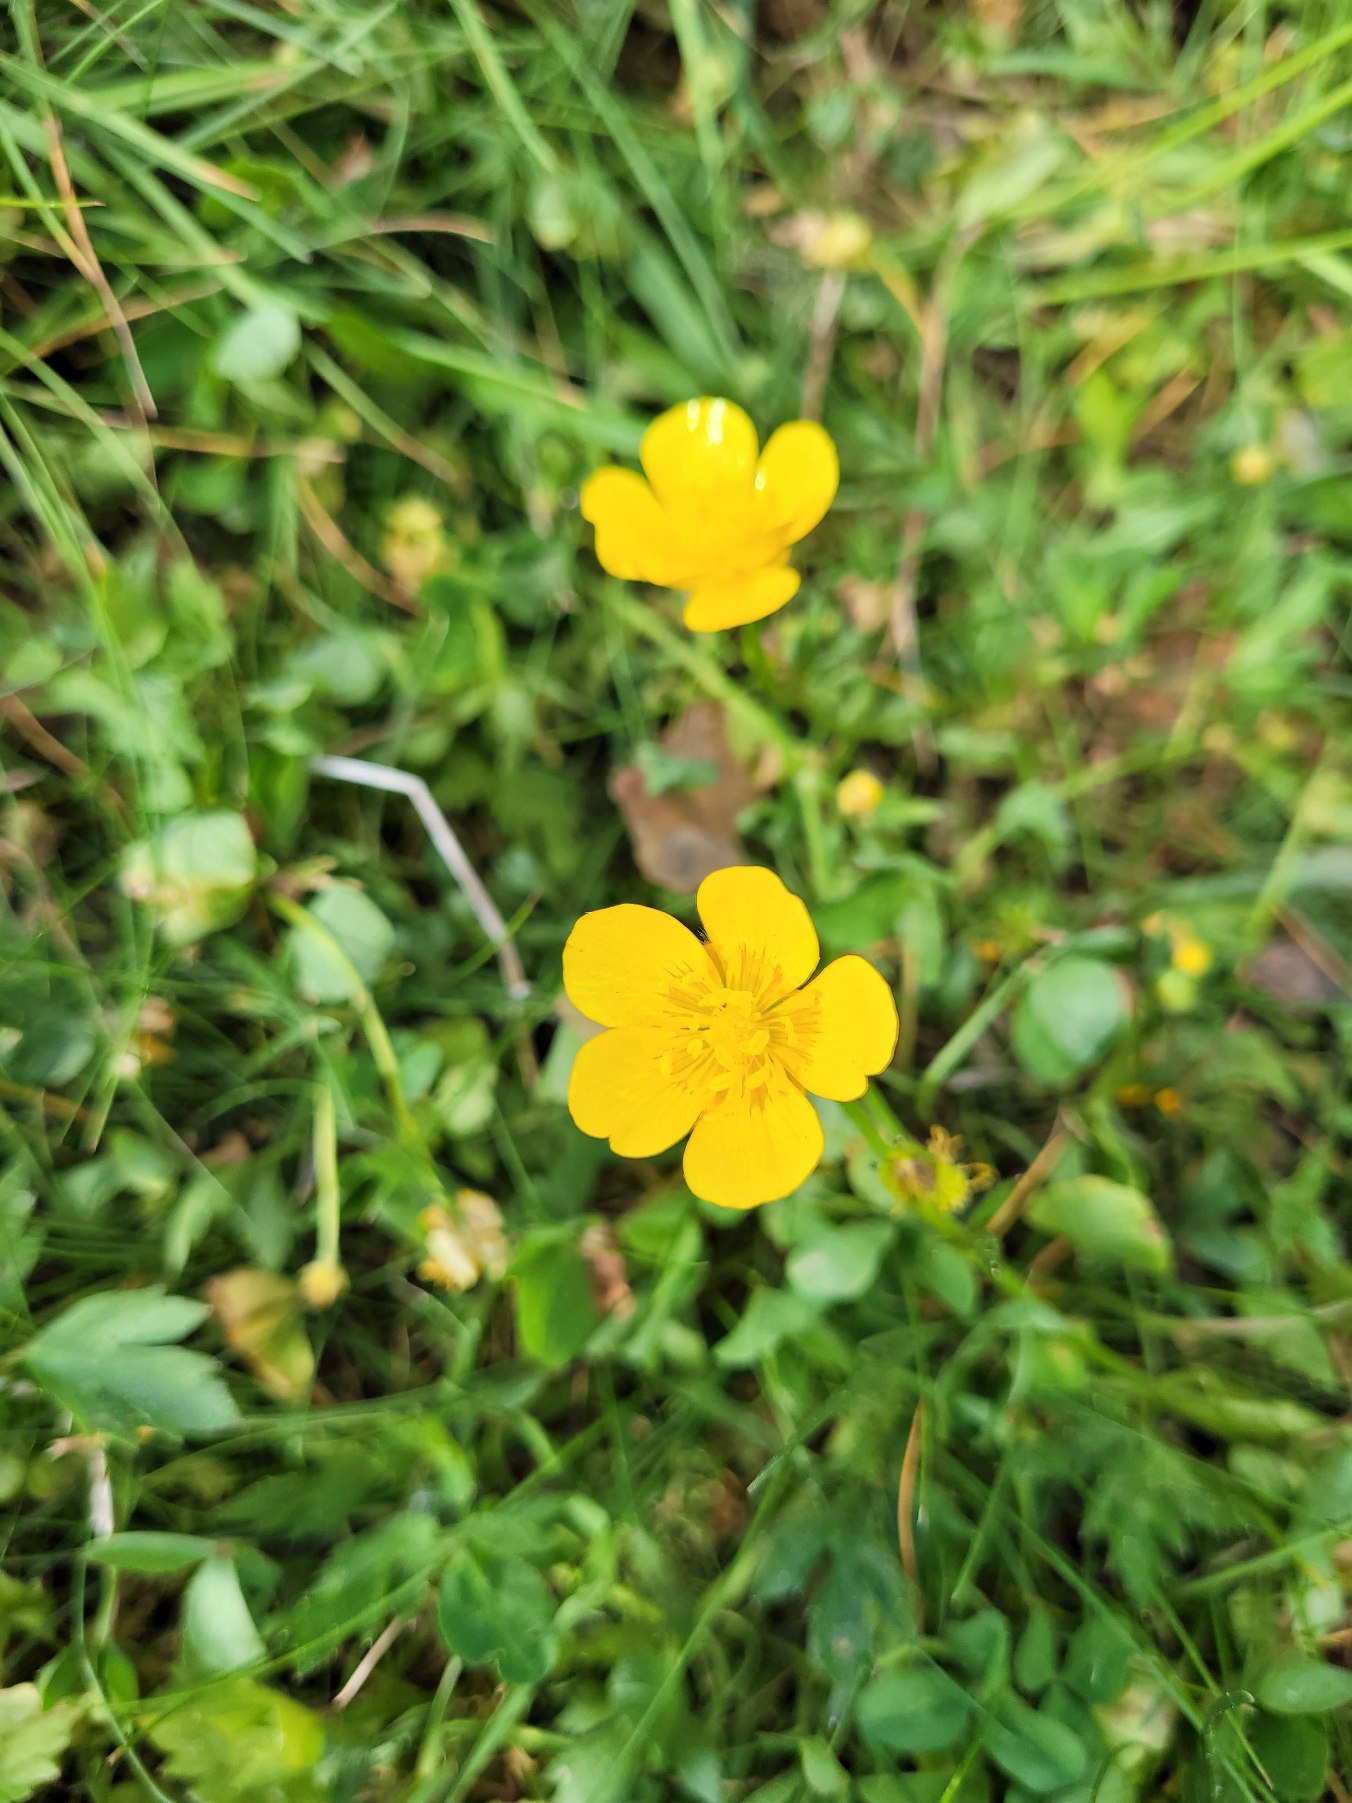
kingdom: Plantae
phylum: Tracheophyta
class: Magnoliopsida
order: Ranunculales
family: Ranunculaceae
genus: Ranunculus
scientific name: Ranunculus repens
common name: Lav ranunkel
